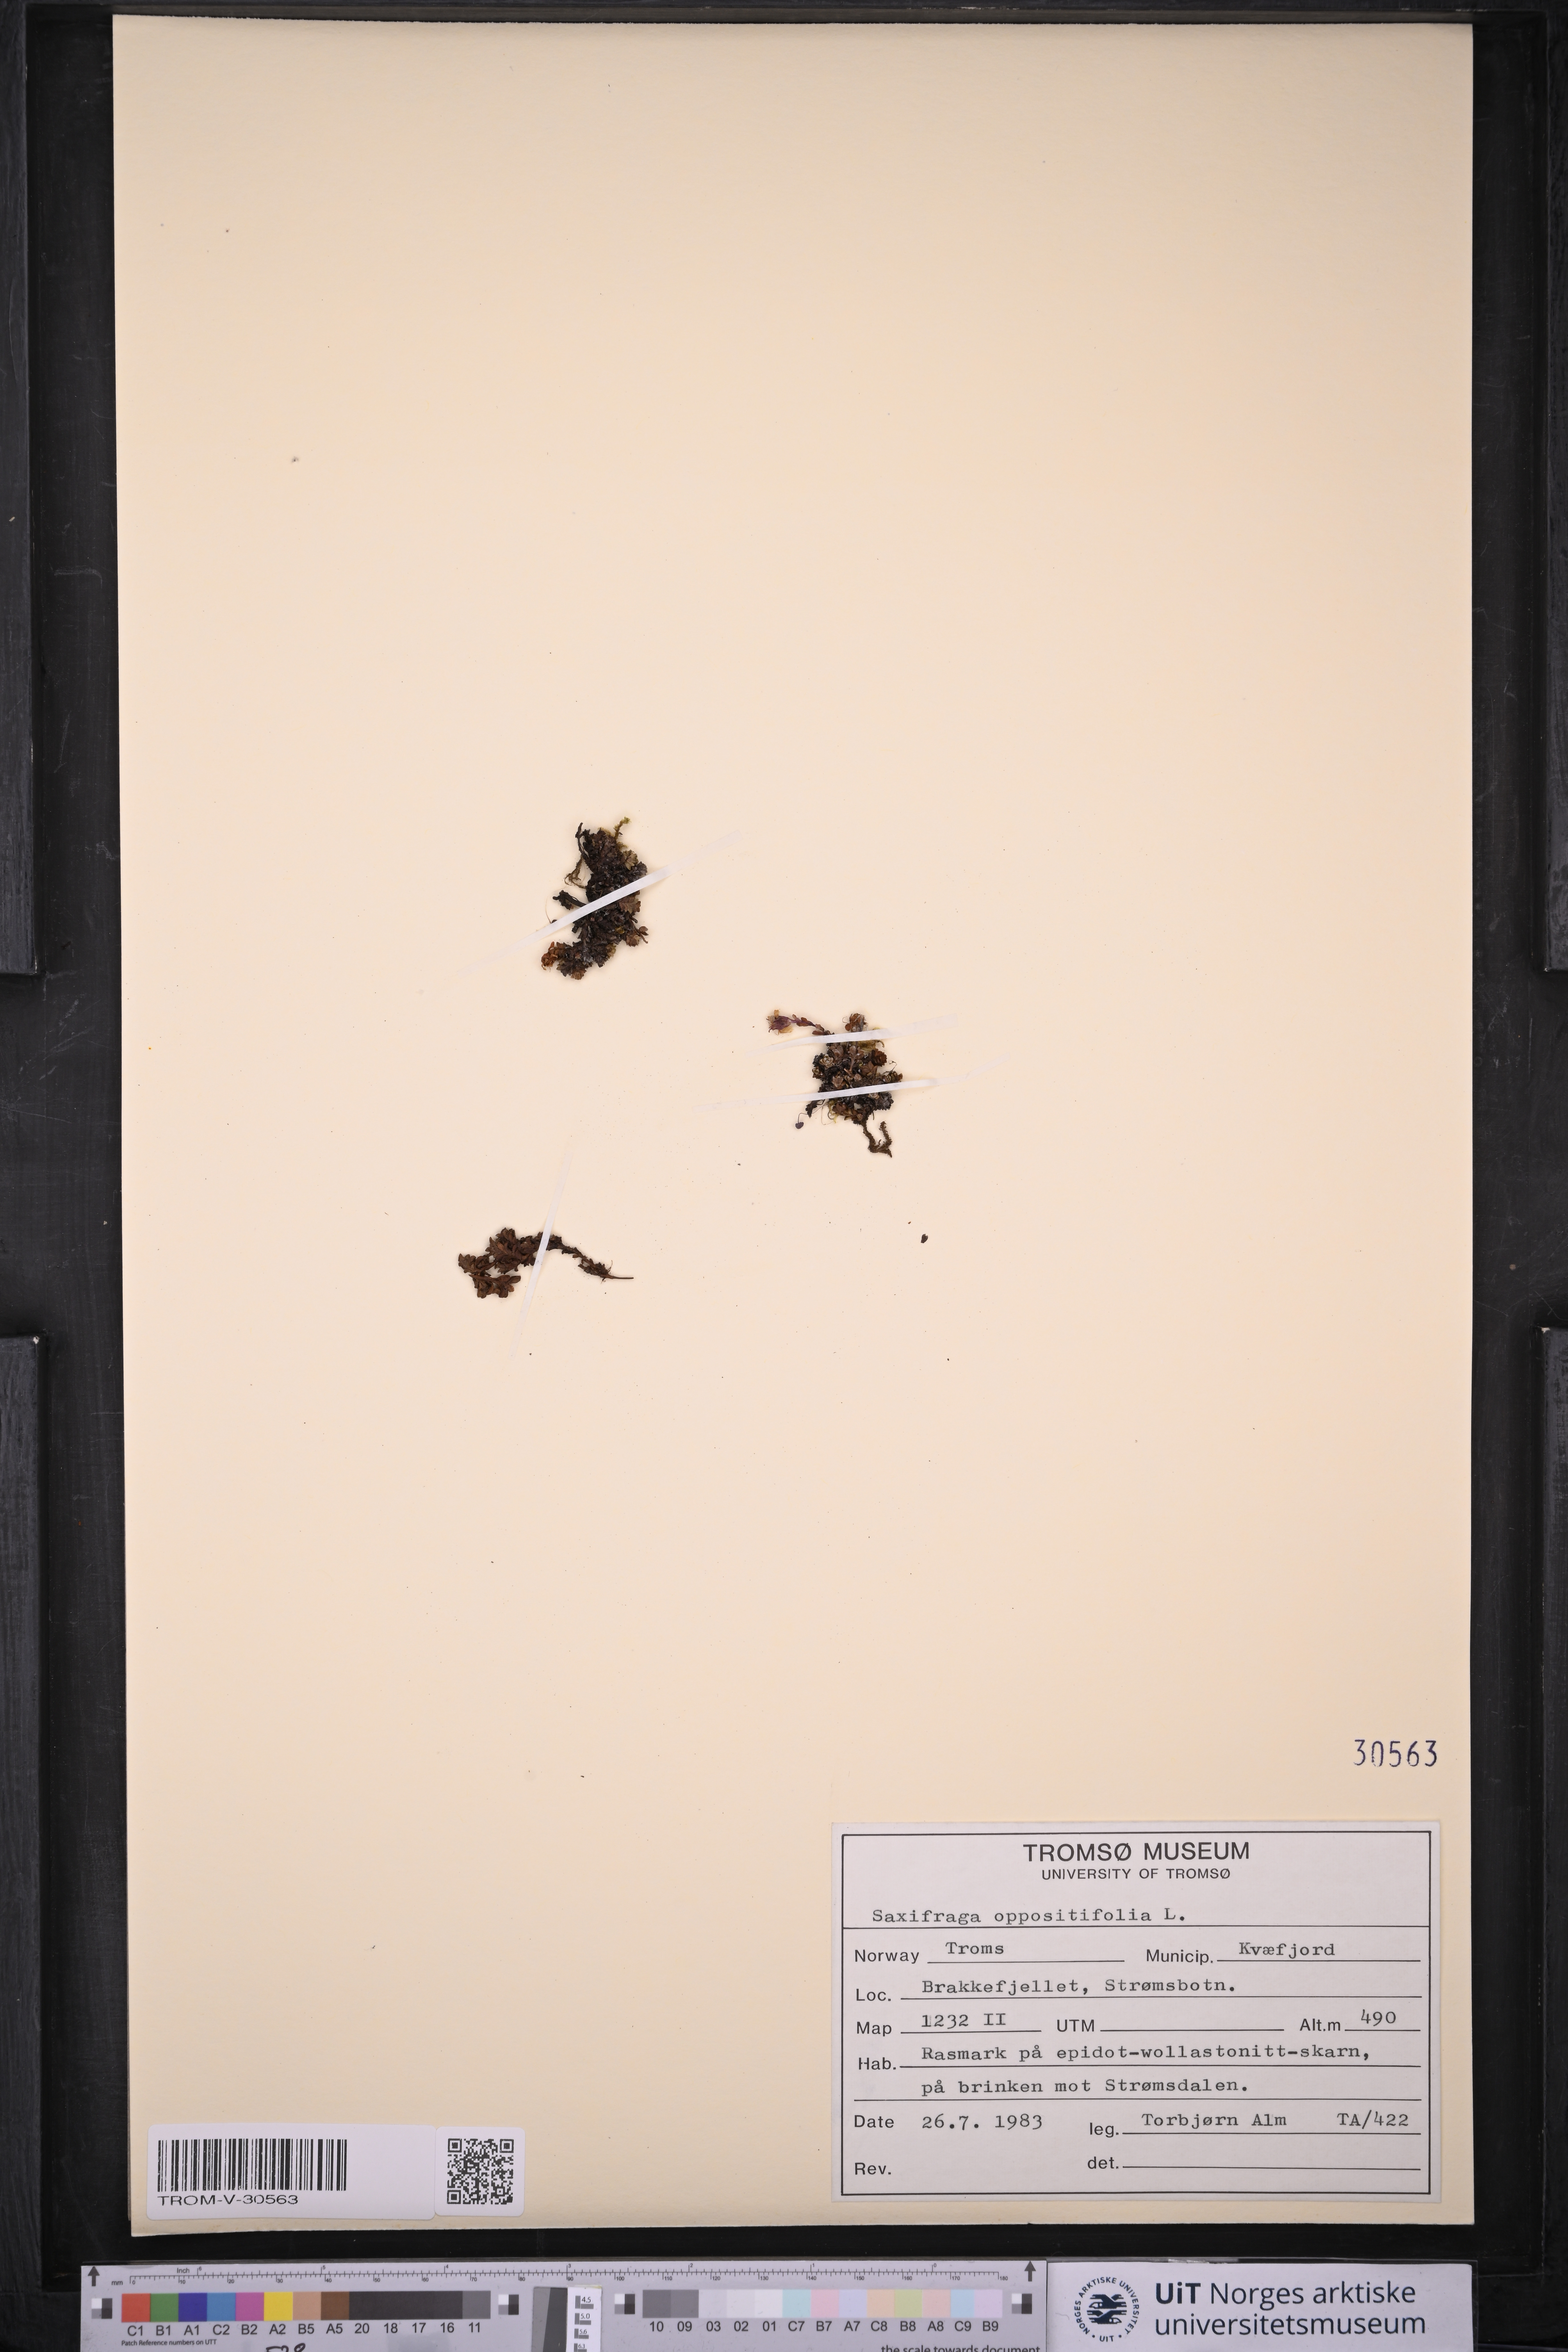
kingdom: Plantae
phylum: Tracheophyta
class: Magnoliopsida
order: Saxifragales
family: Saxifragaceae
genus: Saxifraga
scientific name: Saxifraga oppositifolia
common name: Purple saxifrage
